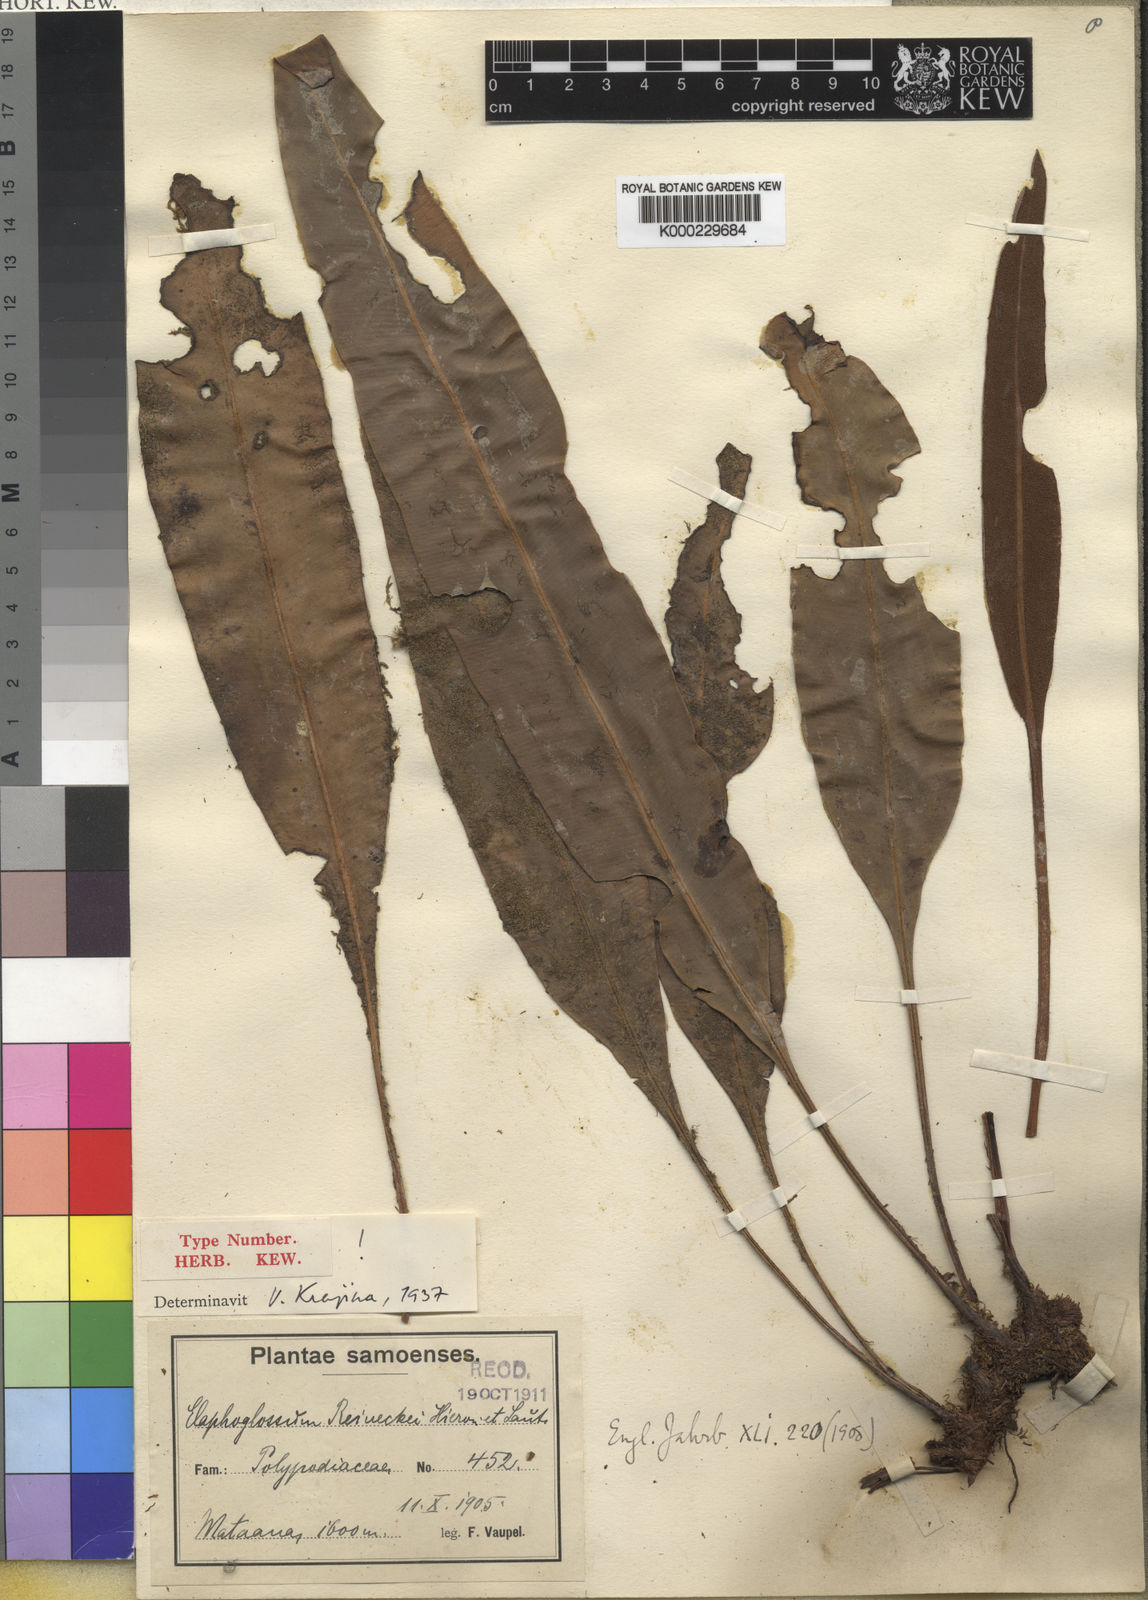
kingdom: Plantae
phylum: Tracheophyta
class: Polypodiopsida
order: Polypodiales
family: Dryopteridaceae
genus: Elaphoglossum
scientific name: Elaphoglossum callifolium
